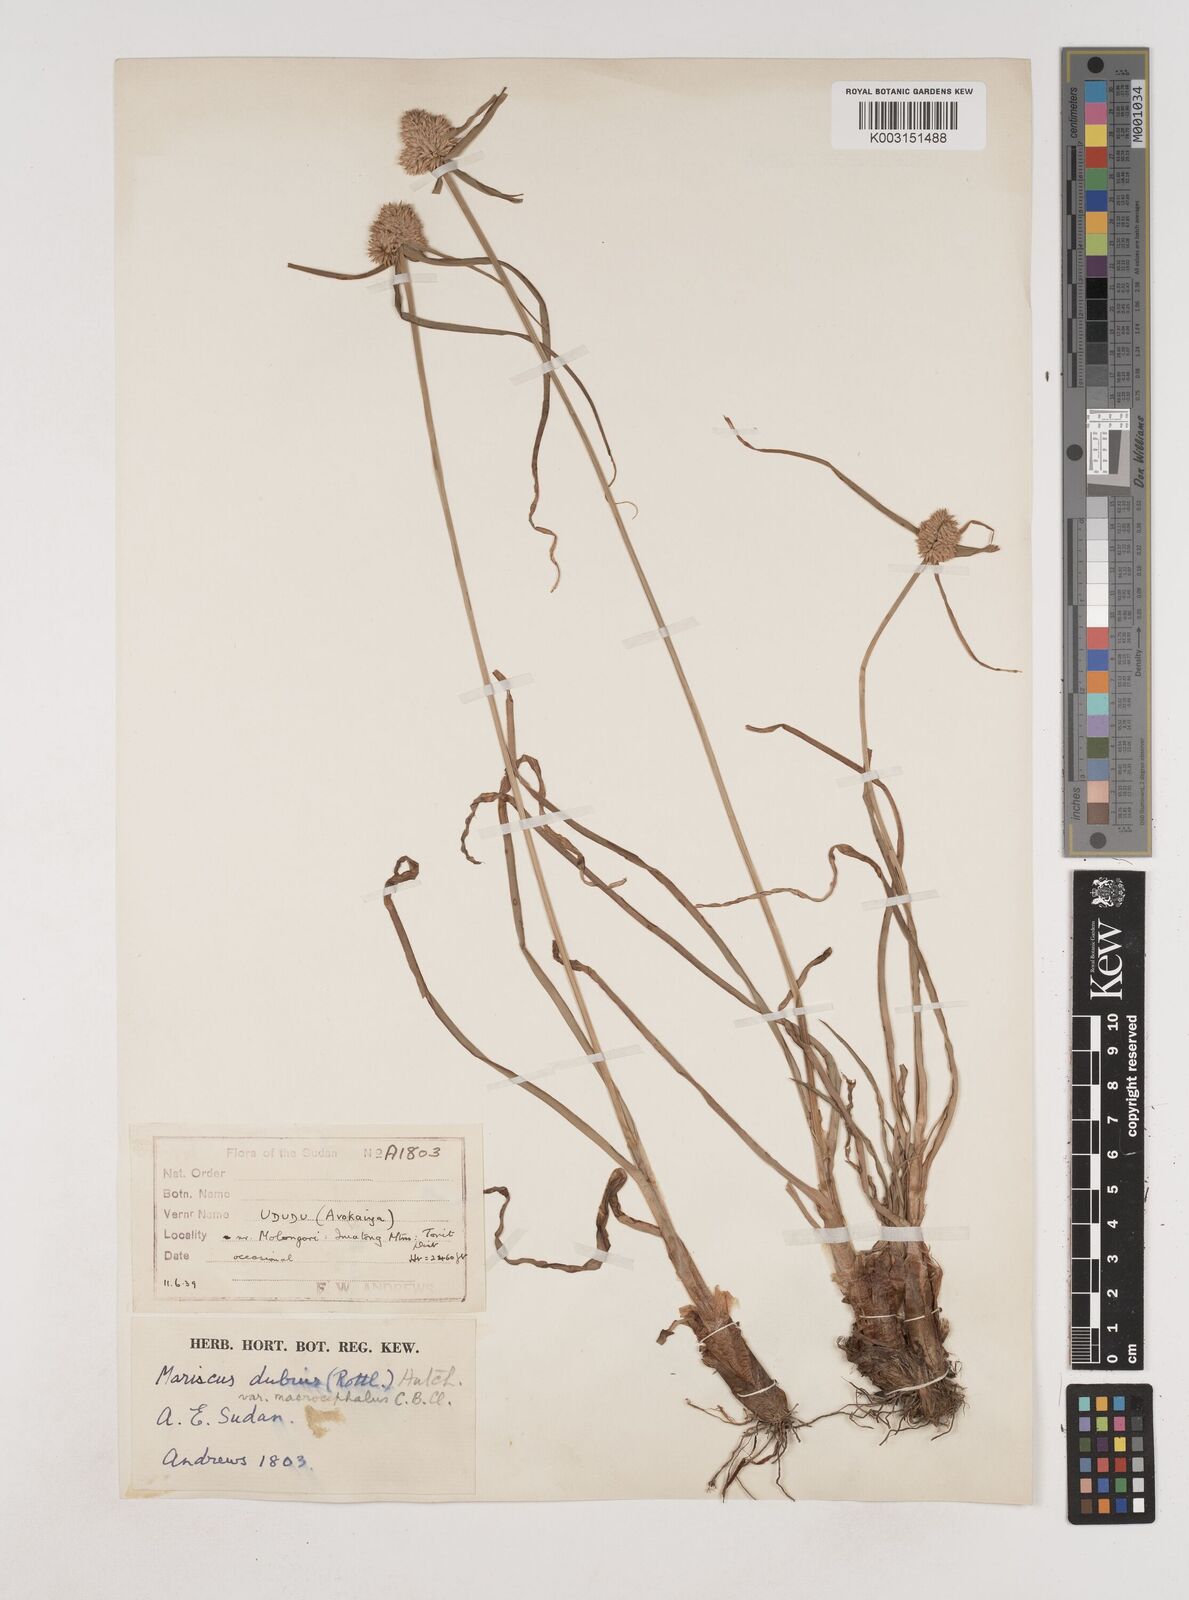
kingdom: Plantae
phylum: Tracheophyta
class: Liliopsida
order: Poales
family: Cyperaceae
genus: Cyperus
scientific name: Cyperus dubius
